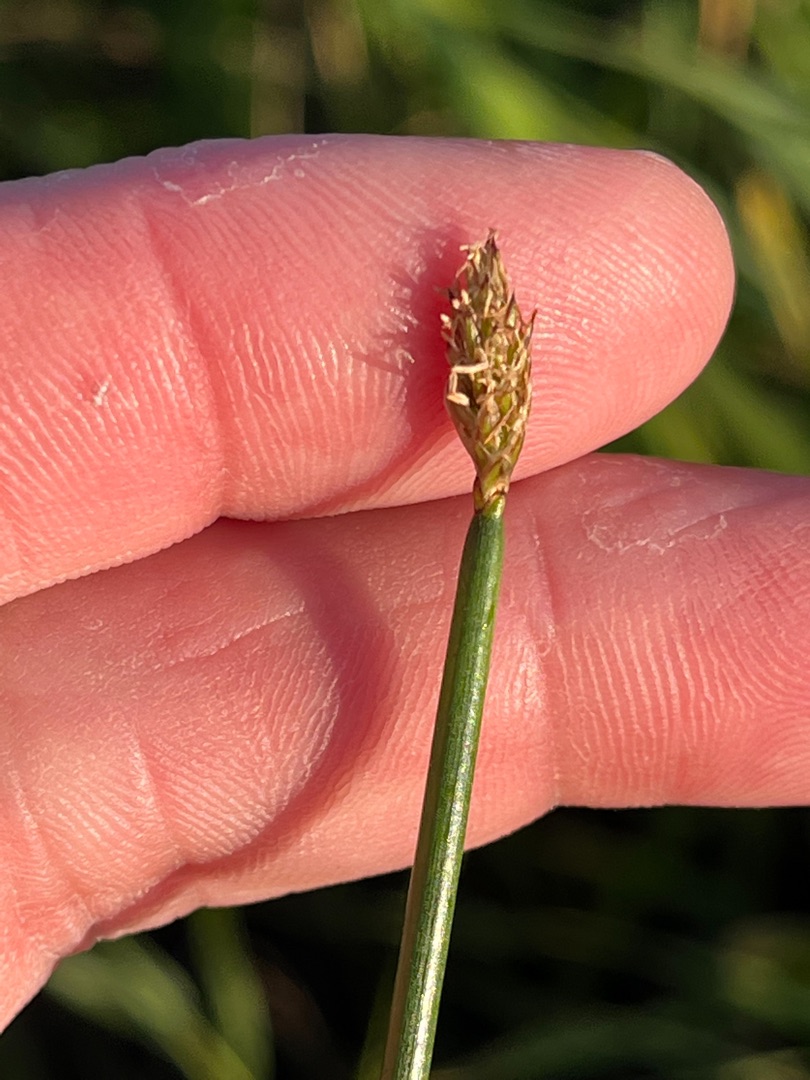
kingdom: Plantae
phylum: Tracheophyta
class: Liliopsida
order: Poales
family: Cyperaceae
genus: Eleocharis
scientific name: Eleocharis palustris
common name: Almindelig sumpstrå
